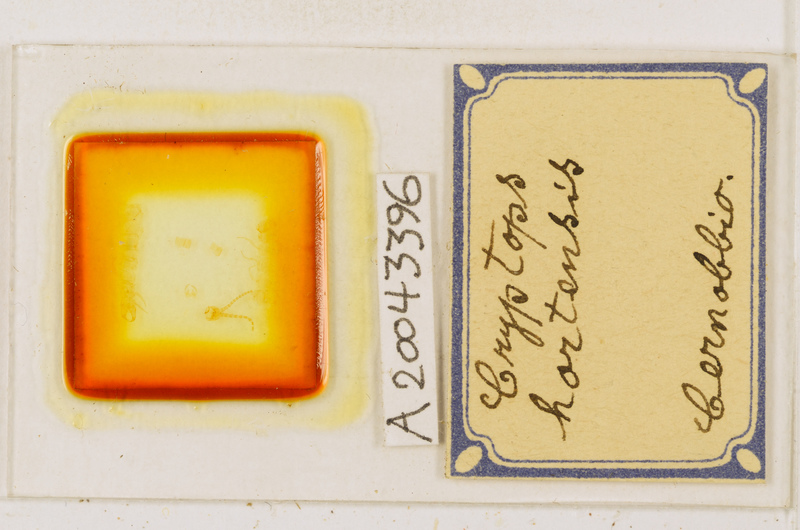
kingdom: Animalia
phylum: Arthropoda
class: Chilopoda
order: Scolopendromorpha
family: Cryptopidae
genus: Cryptops
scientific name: Cryptops hortensis
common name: Centipede
